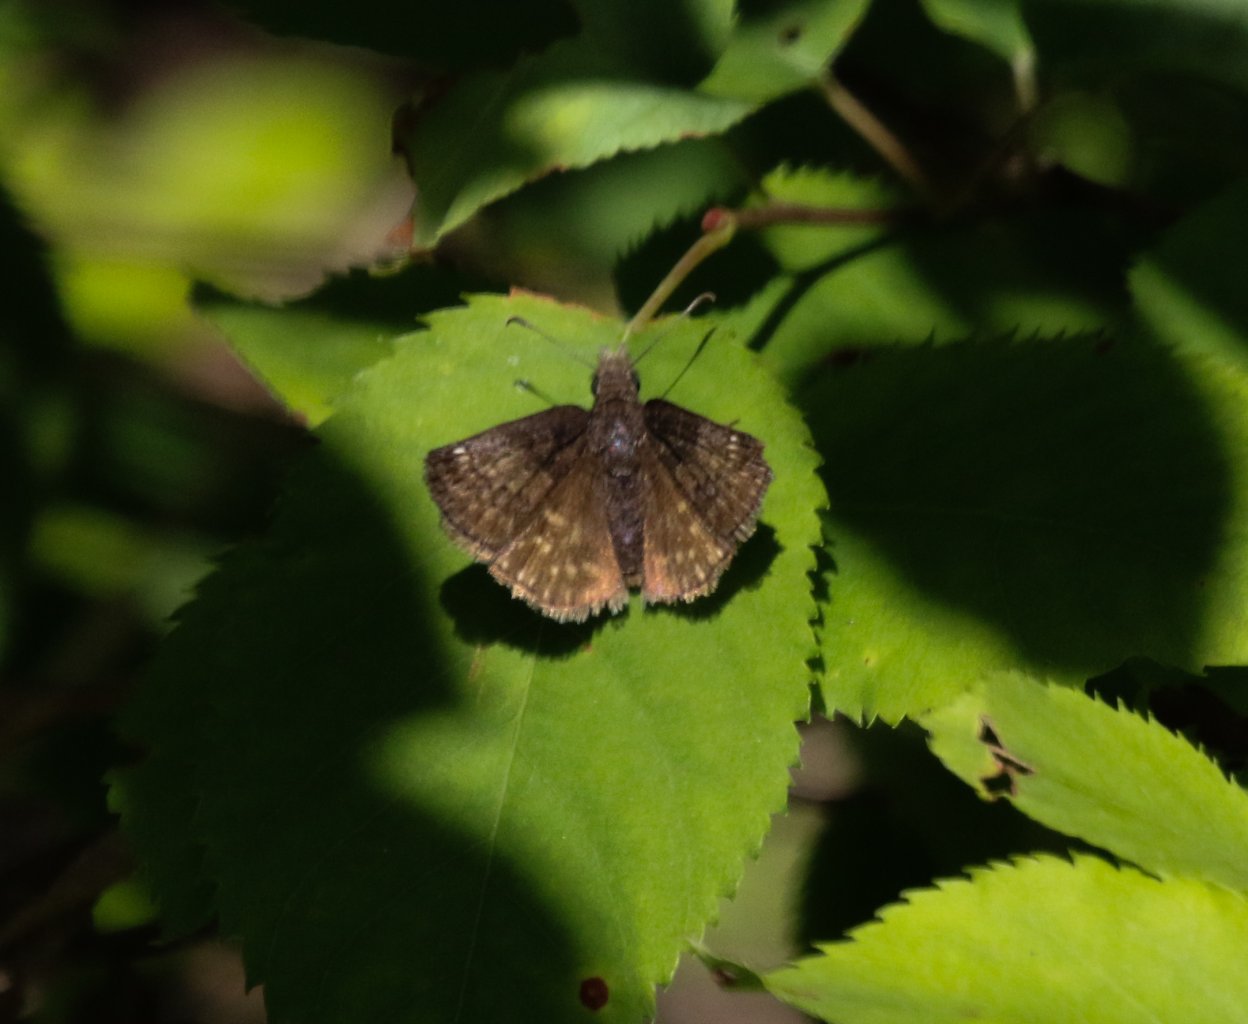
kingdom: Animalia
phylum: Arthropoda
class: Insecta
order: Lepidoptera
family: Hesperiidae
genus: Gesta
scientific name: Gesta
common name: Juvenal's Duskywing
